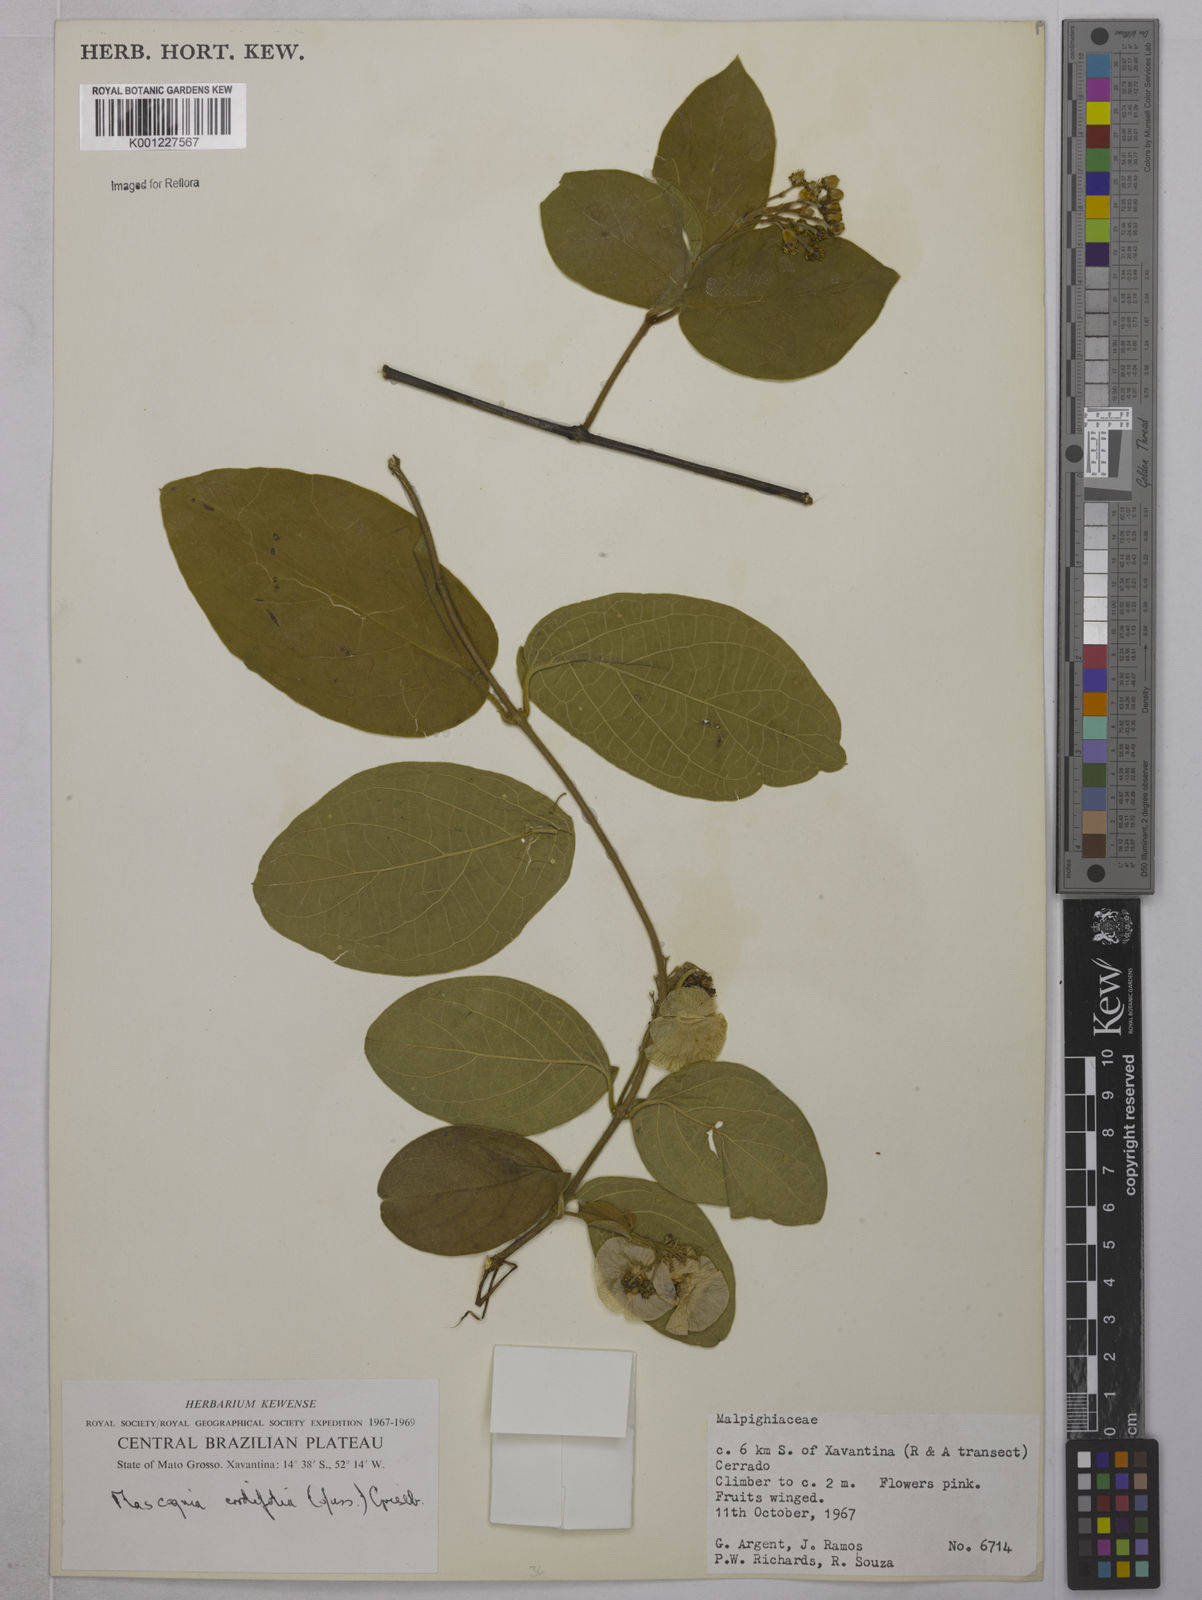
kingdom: Plantae
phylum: Tracheophyta
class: Magnoliopsida
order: Malpighiales
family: Malpighiaceae
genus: Mascagnia
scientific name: Mascagnia cordifolia
